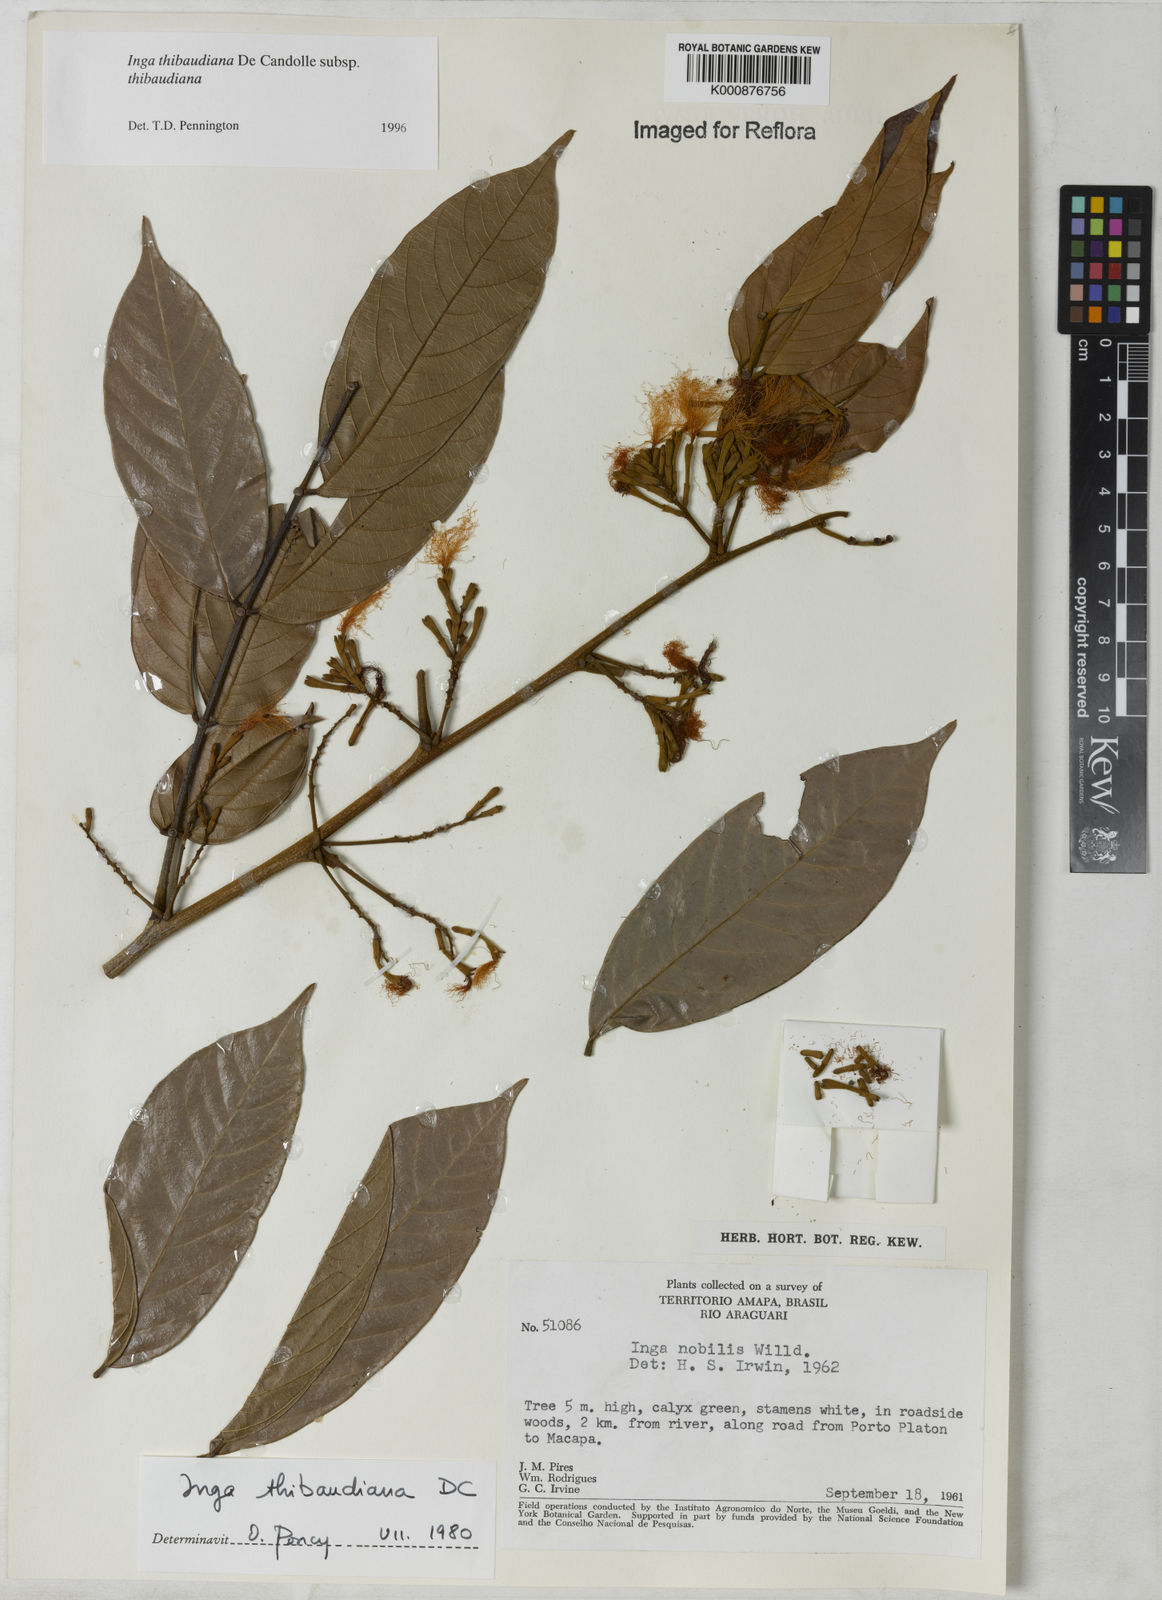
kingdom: Plantae
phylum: Tracheophyta
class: Magnoliopsida
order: Fabales
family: Fabaceae
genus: Inga
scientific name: Inga thibaudiana
